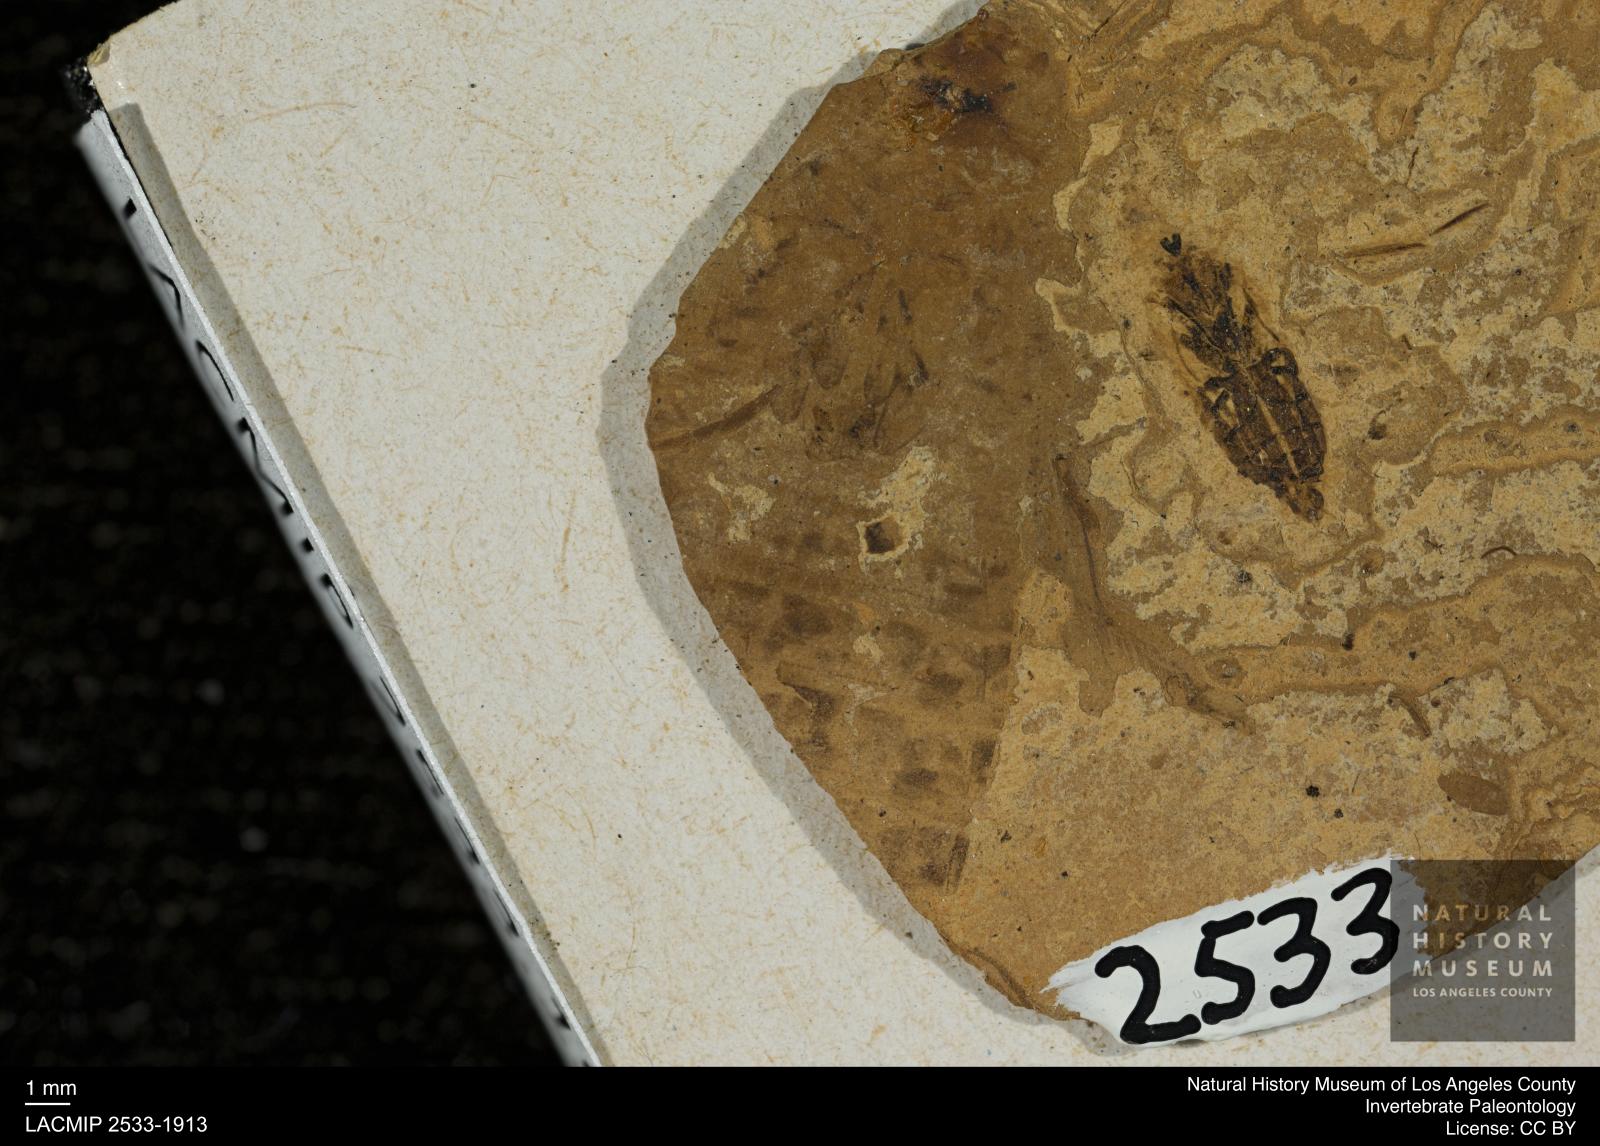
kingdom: Animalia
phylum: Arthropoda
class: Insecta
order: Odonata
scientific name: Odonata
